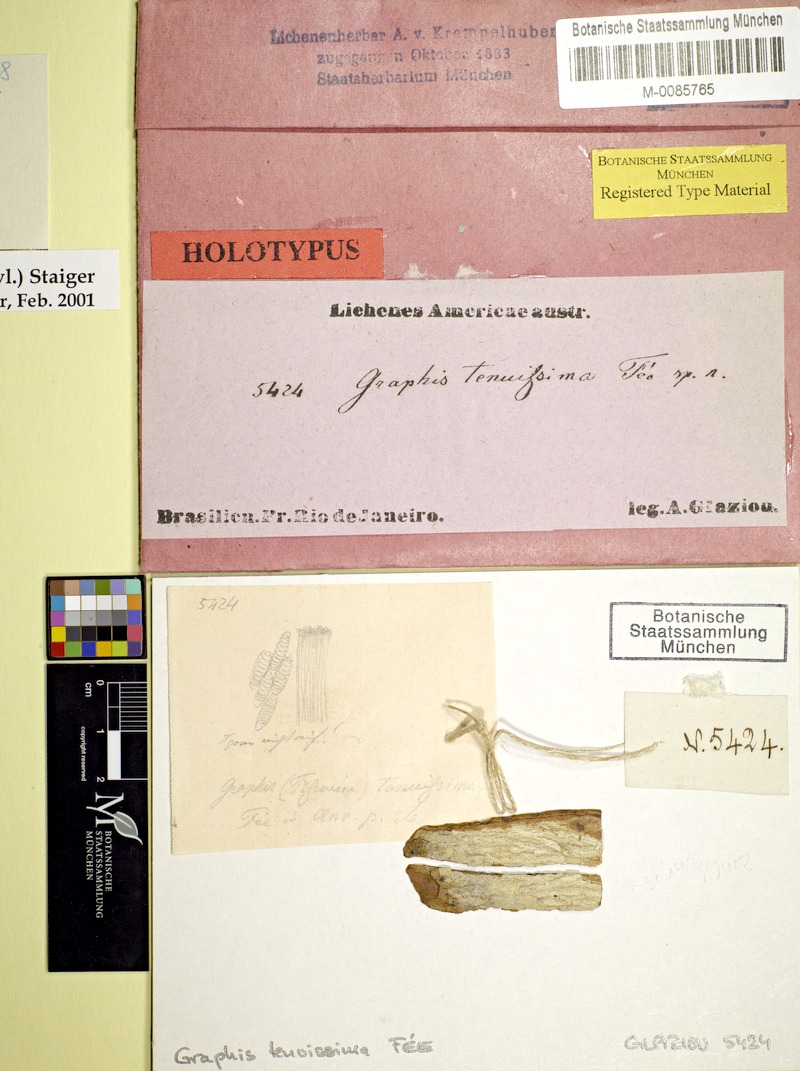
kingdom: Fungi
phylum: Ascomycota
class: Lecanoromycetes
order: Ostropales
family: Graphidaceae
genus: Platythecium
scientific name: Platythecium hypoleptum
